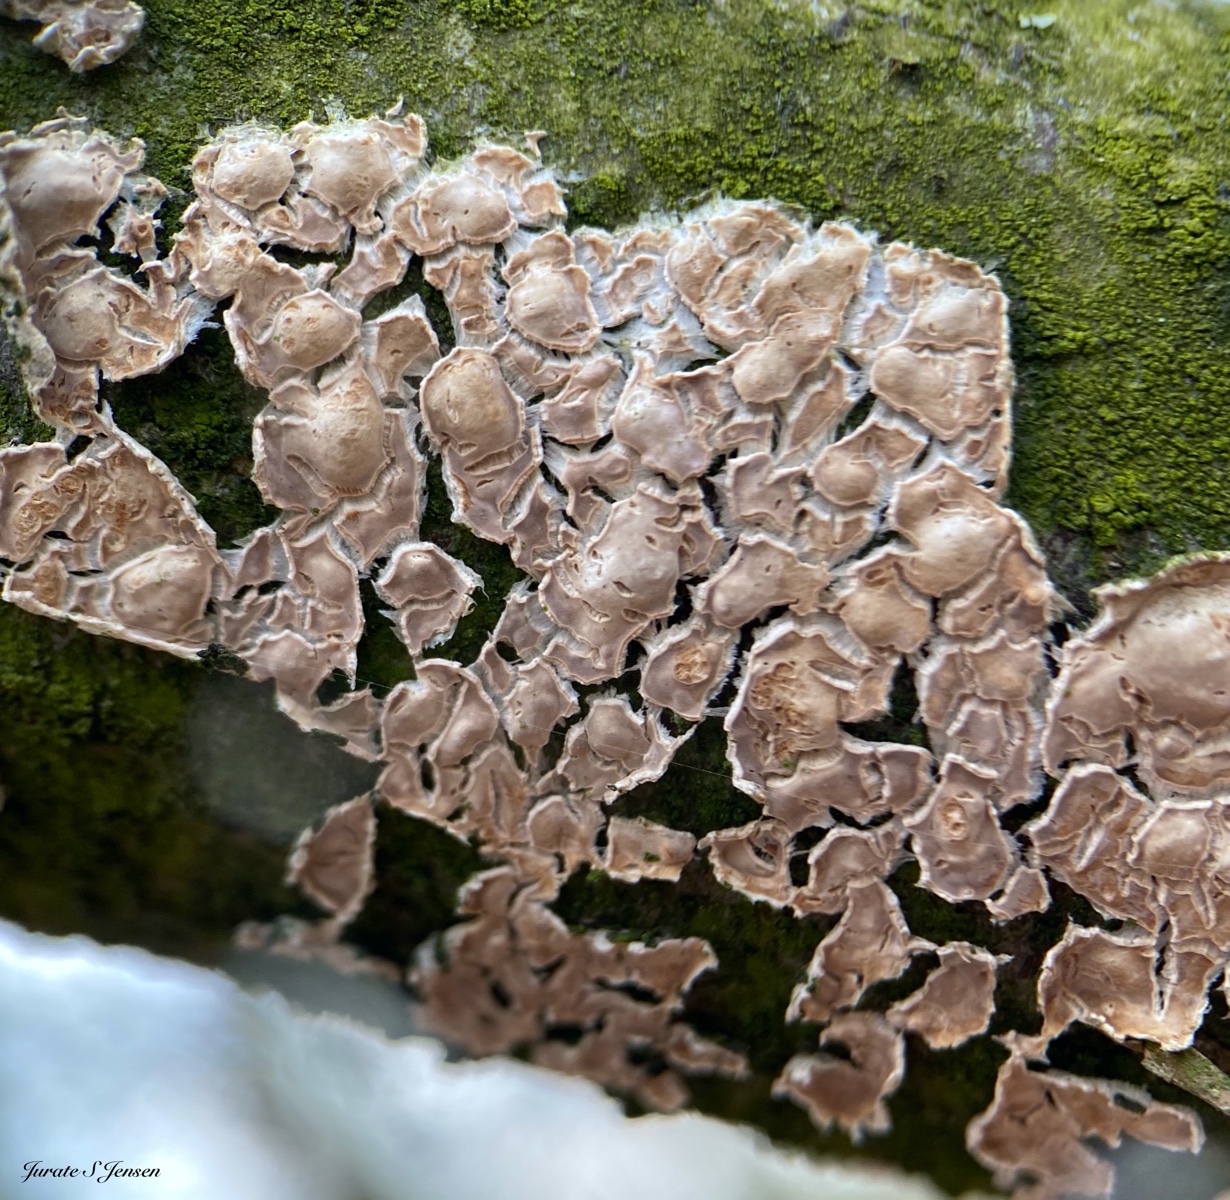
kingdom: Fungi
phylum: Basidiomycota
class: Agaricomycetes
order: Agaricales
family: Physalacriaceae
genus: Cylindrobasidium
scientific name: Cylindrobasidium evolvens
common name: sprækkehinde
